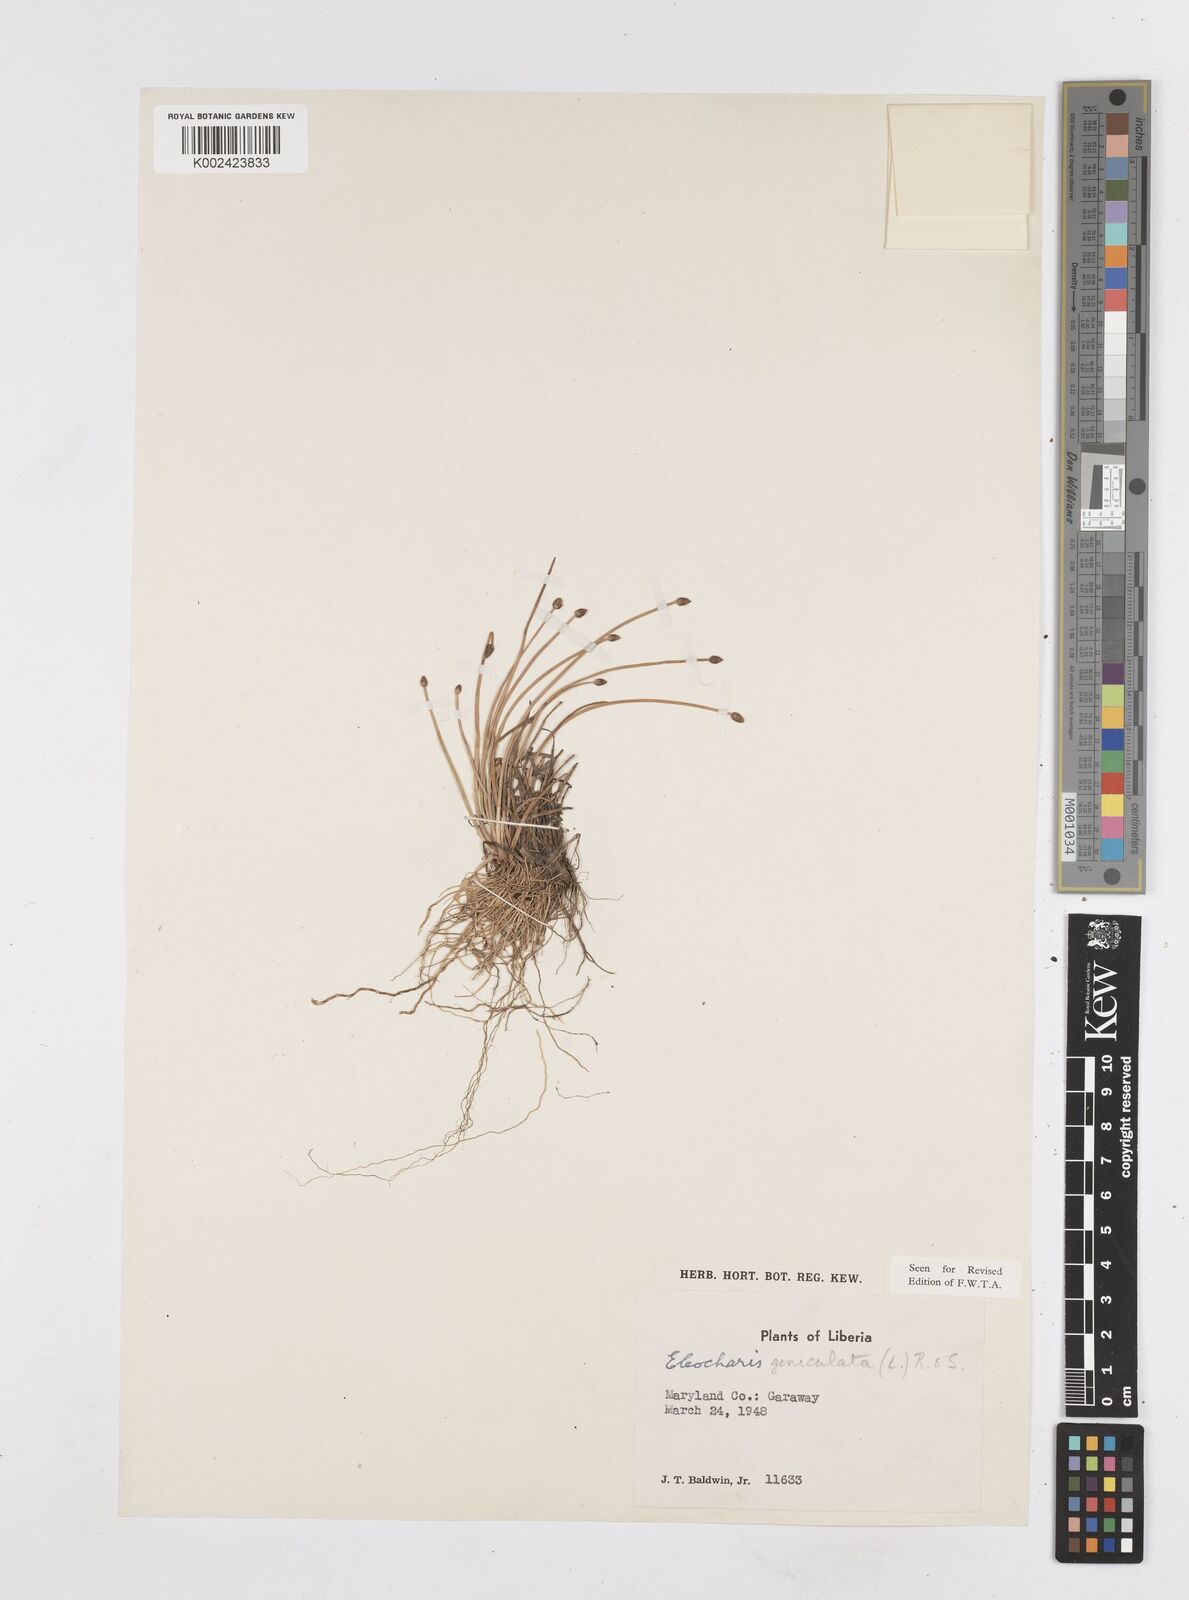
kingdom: Plantae
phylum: Tracheophyta
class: Liliopsida
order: Poales
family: Cyperaceae
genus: Eleocharis
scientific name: Eleocharis geniculata
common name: Canada spikesedge
